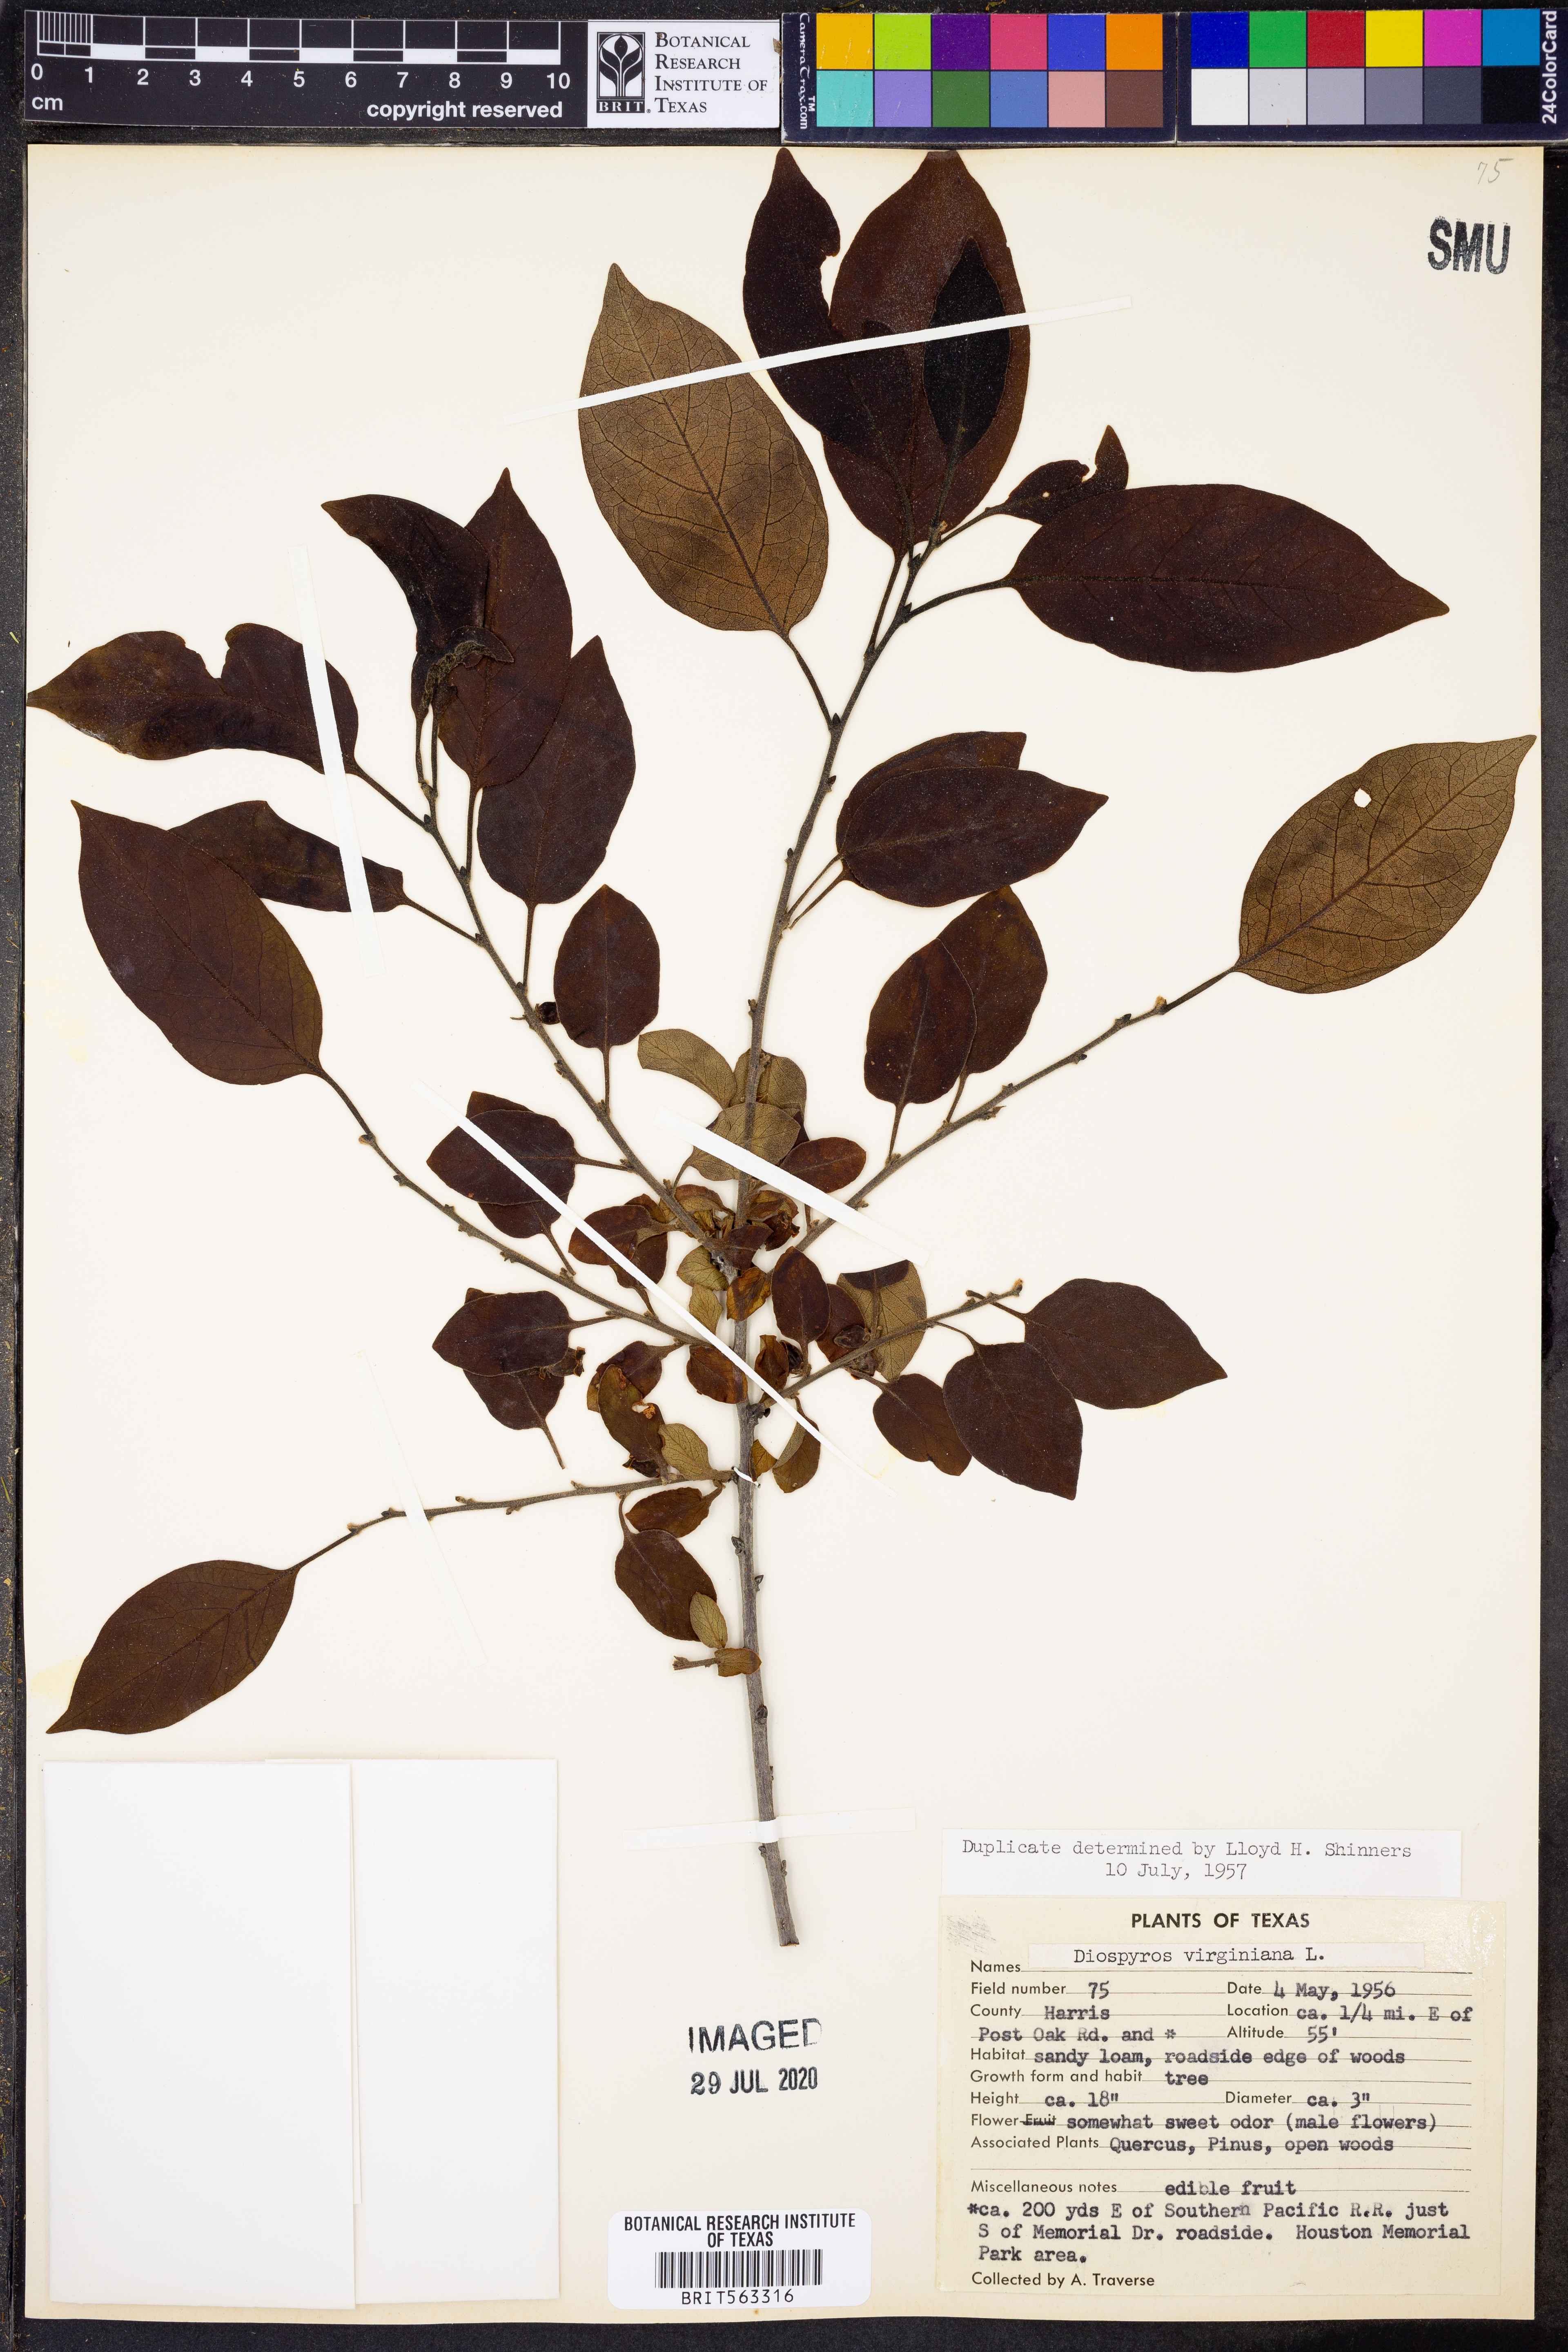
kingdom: Plantae
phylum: Tracheophyta
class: Magnoliopsida
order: Ericales
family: Ebenaceae
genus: Diospyros
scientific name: Diospyros virginiana
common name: Persimmon
